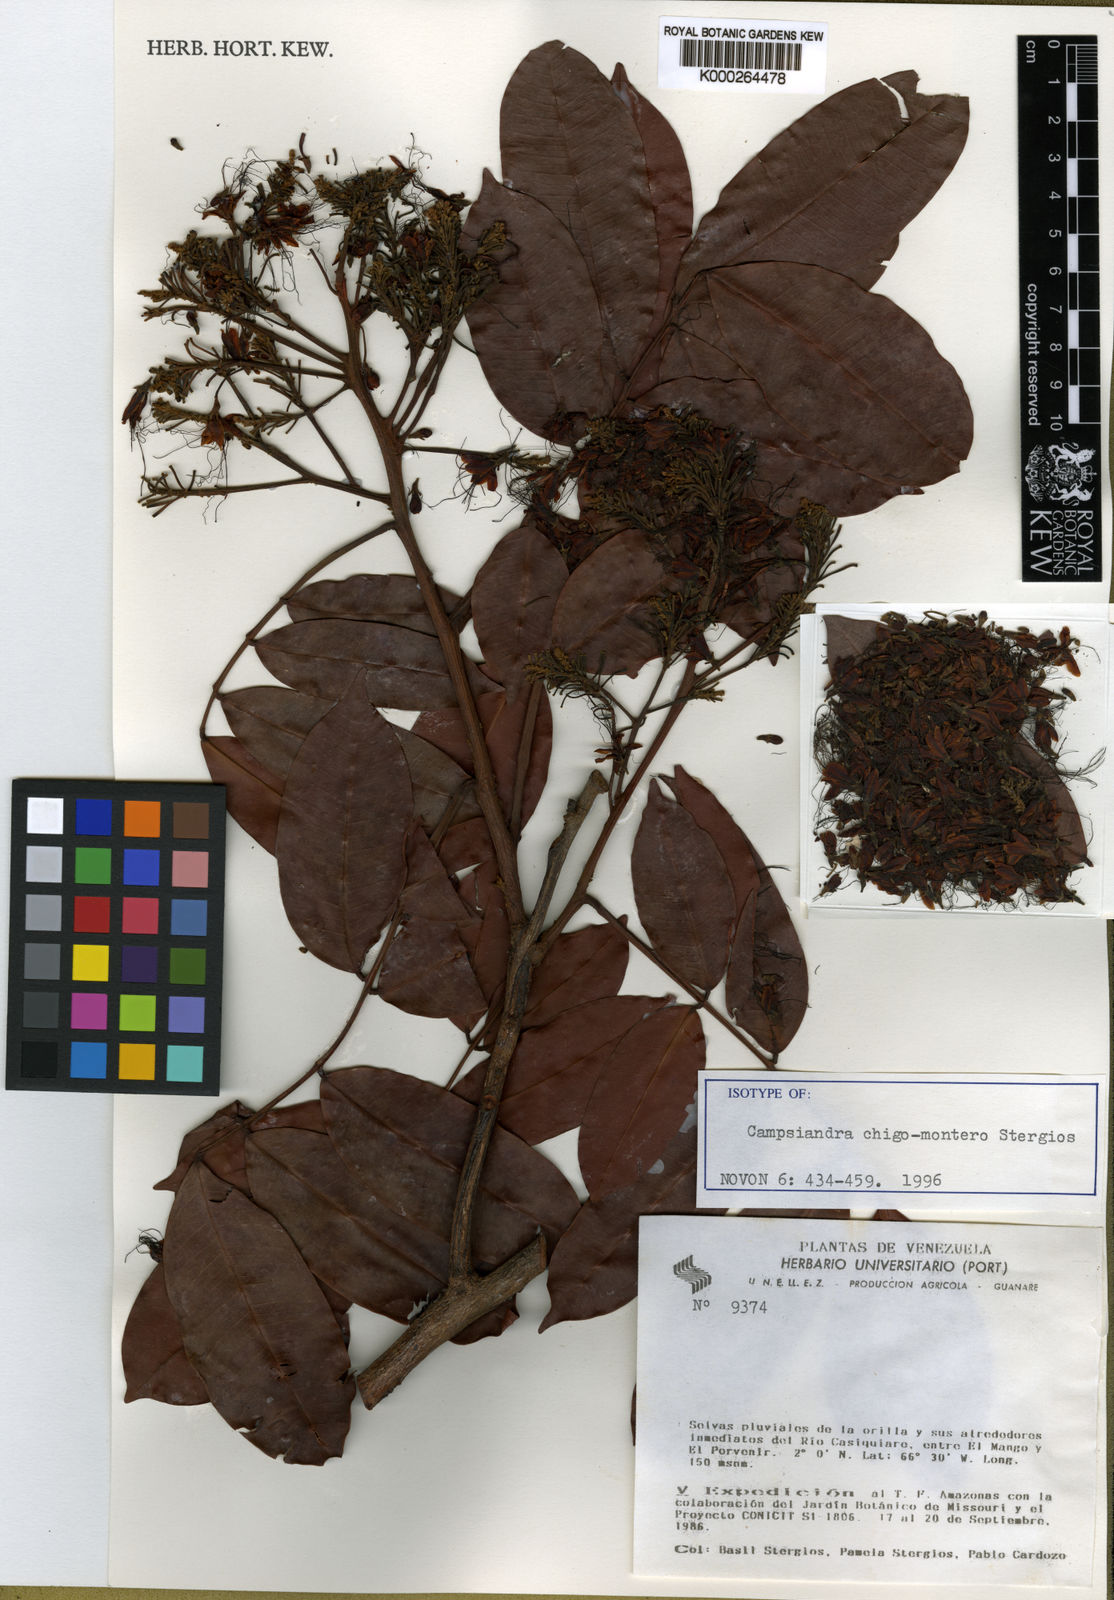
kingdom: Plantae
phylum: Tracheophyta
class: Magnoliopsida
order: Fabales
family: Fabaceae
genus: Campsiandra
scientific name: Campsiandra chigo-montero
